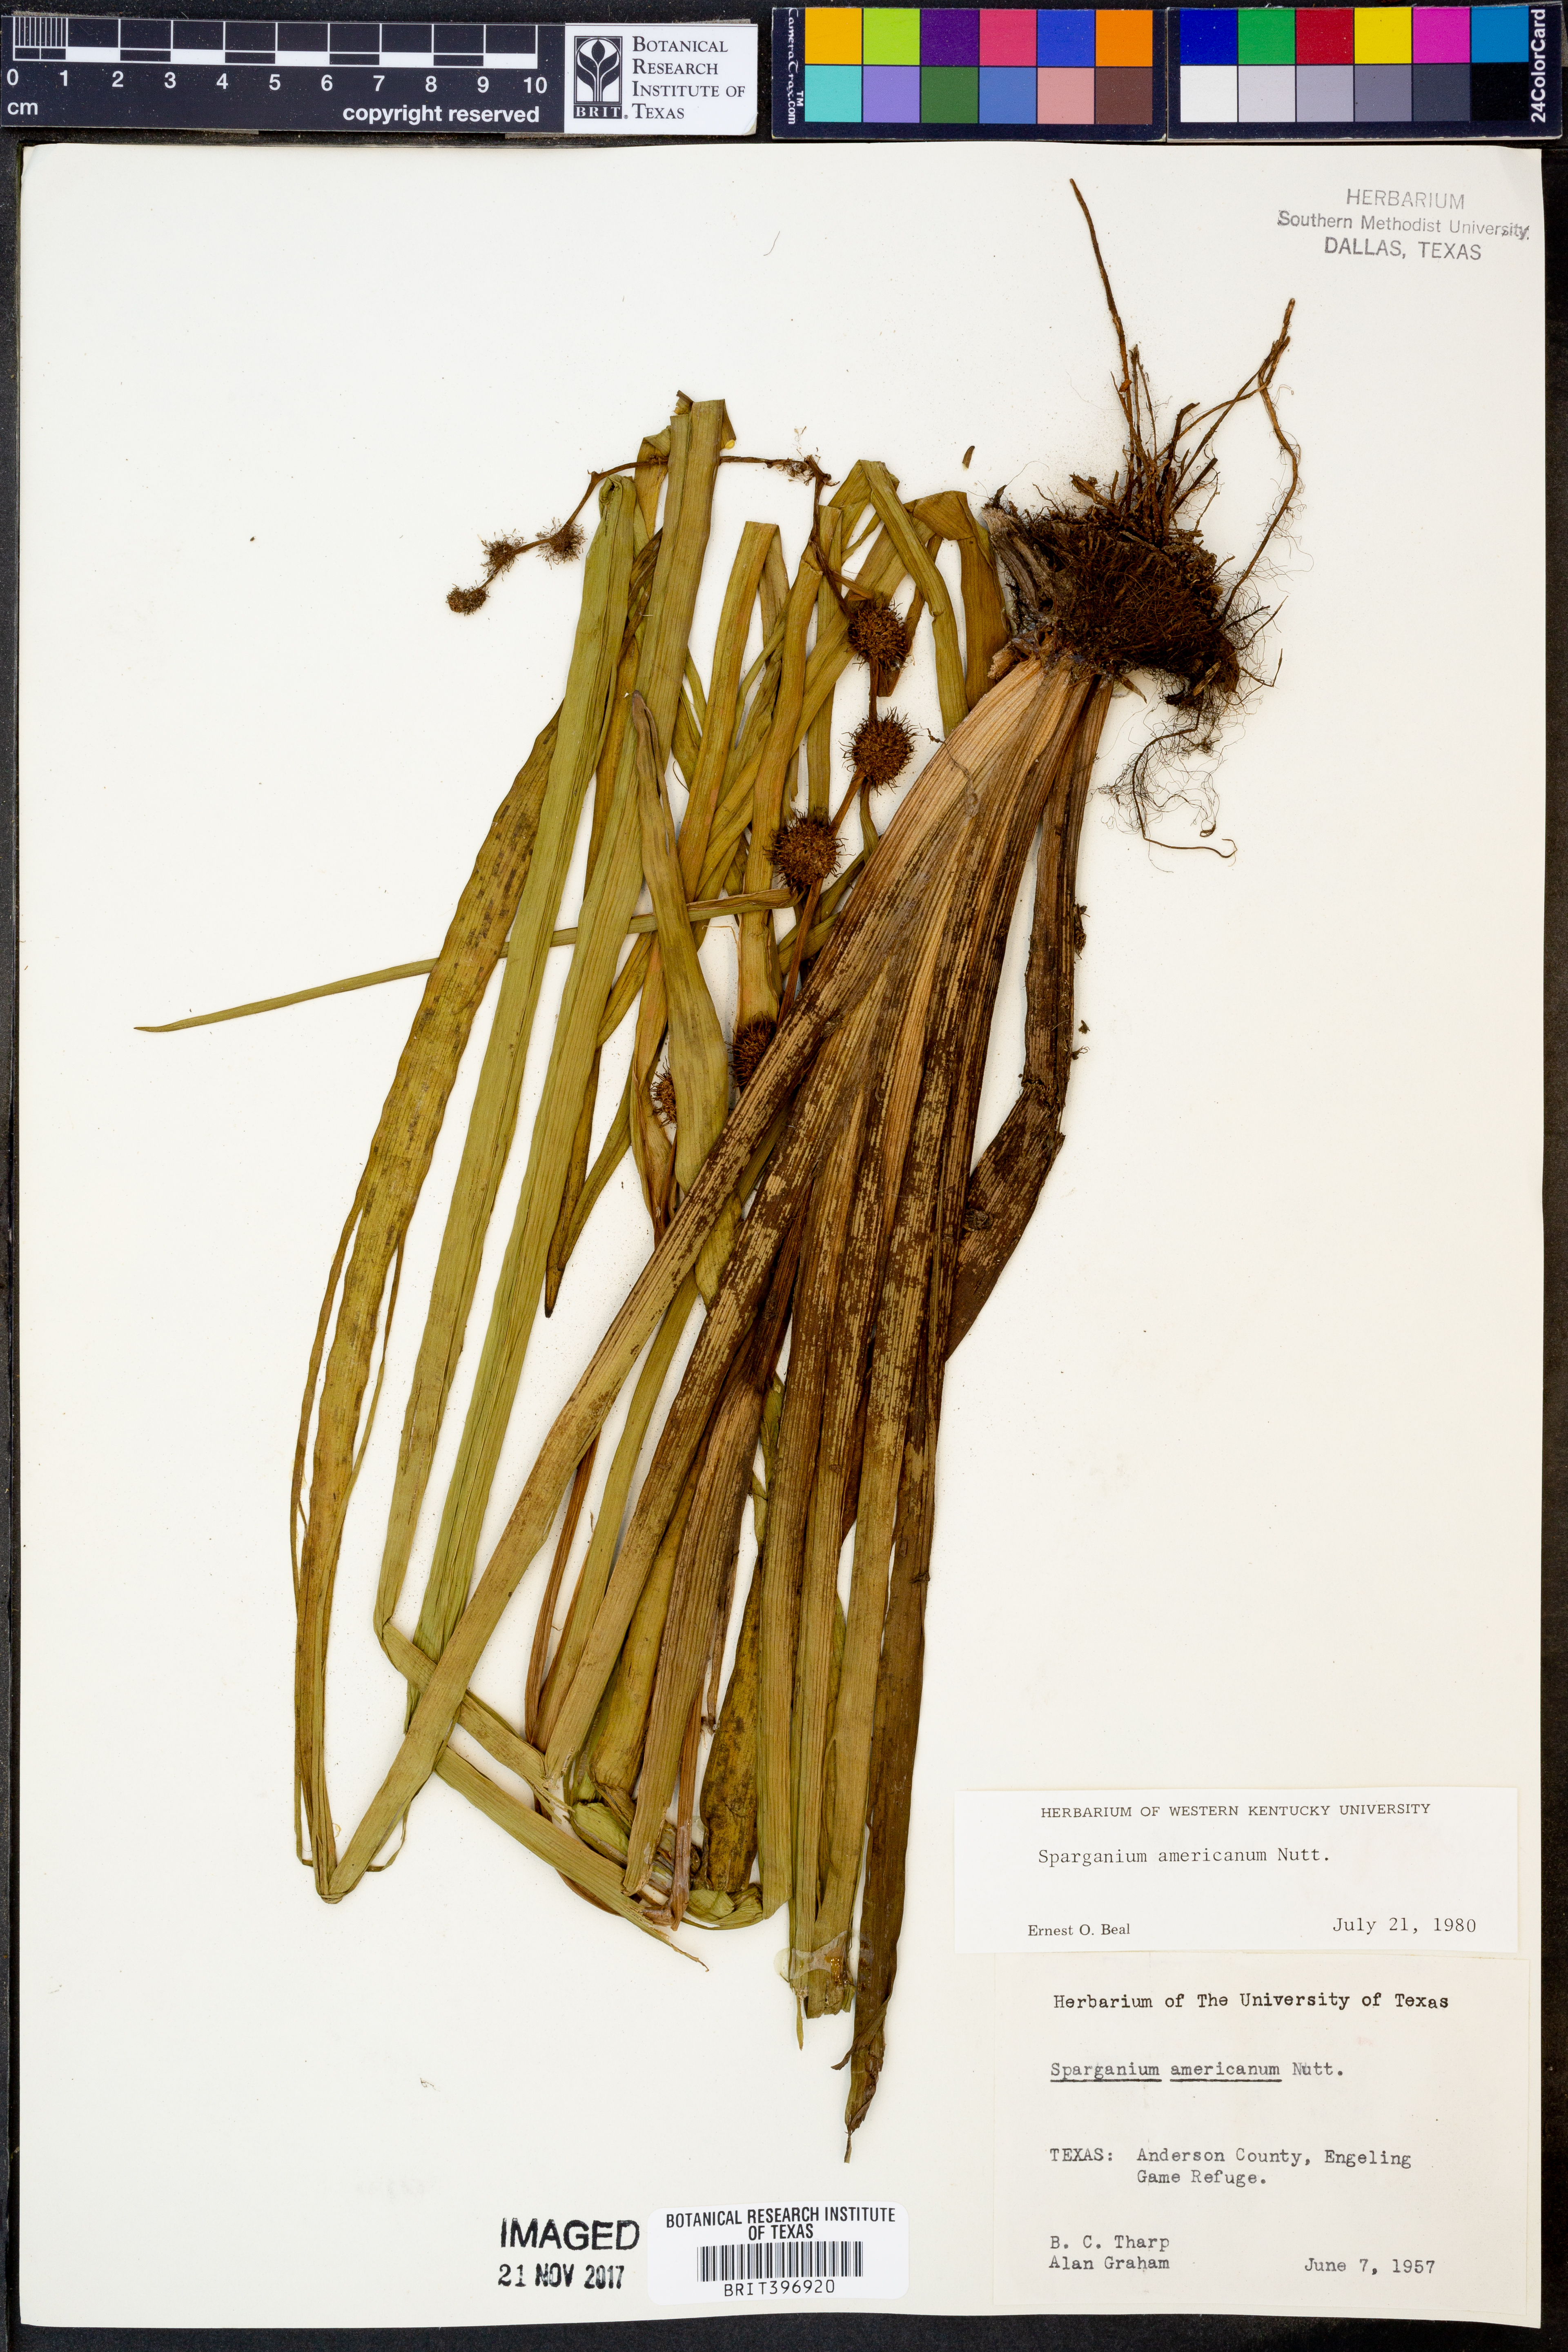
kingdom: Plantae
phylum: Tracheophyta
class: Liliopsida
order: Poales
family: Typhaceae
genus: Sparganium
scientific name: Sparganium americanum
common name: American burreed
